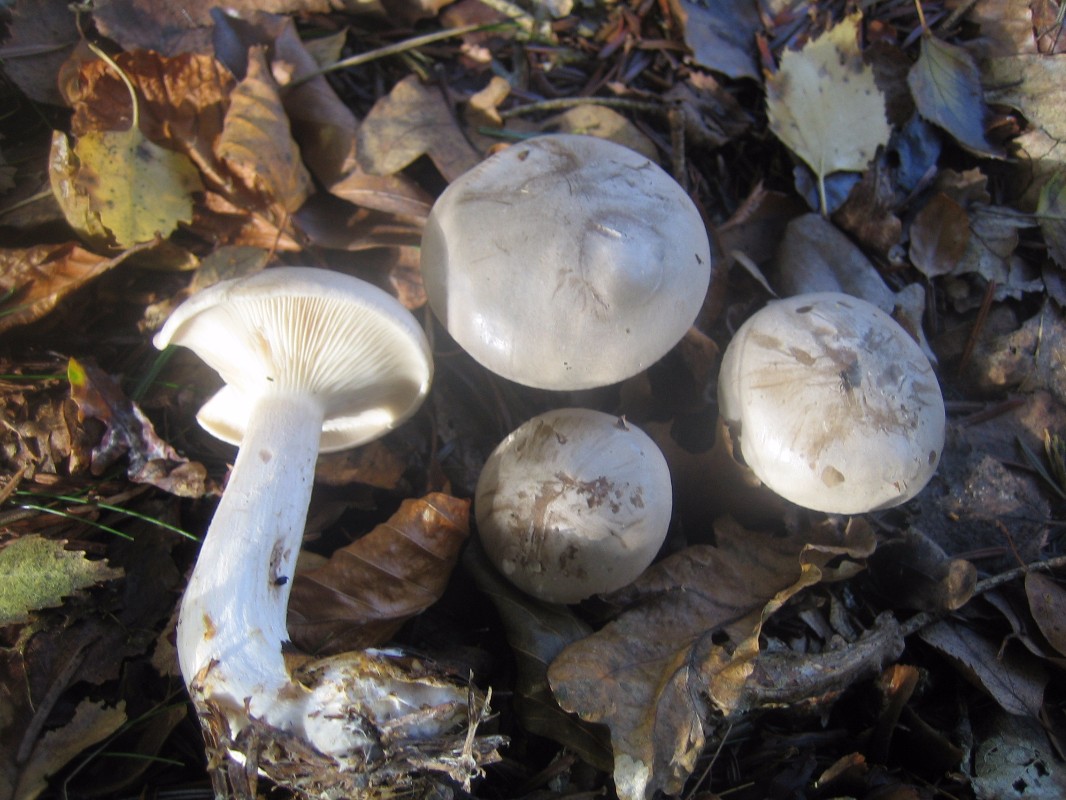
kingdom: Fungi
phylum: Basidiomycota
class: Agaricomycetes
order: Agaricales
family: Tricholomataceae
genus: Clitocybe
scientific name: Clitocybe nebularis
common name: tåge-tragthat
